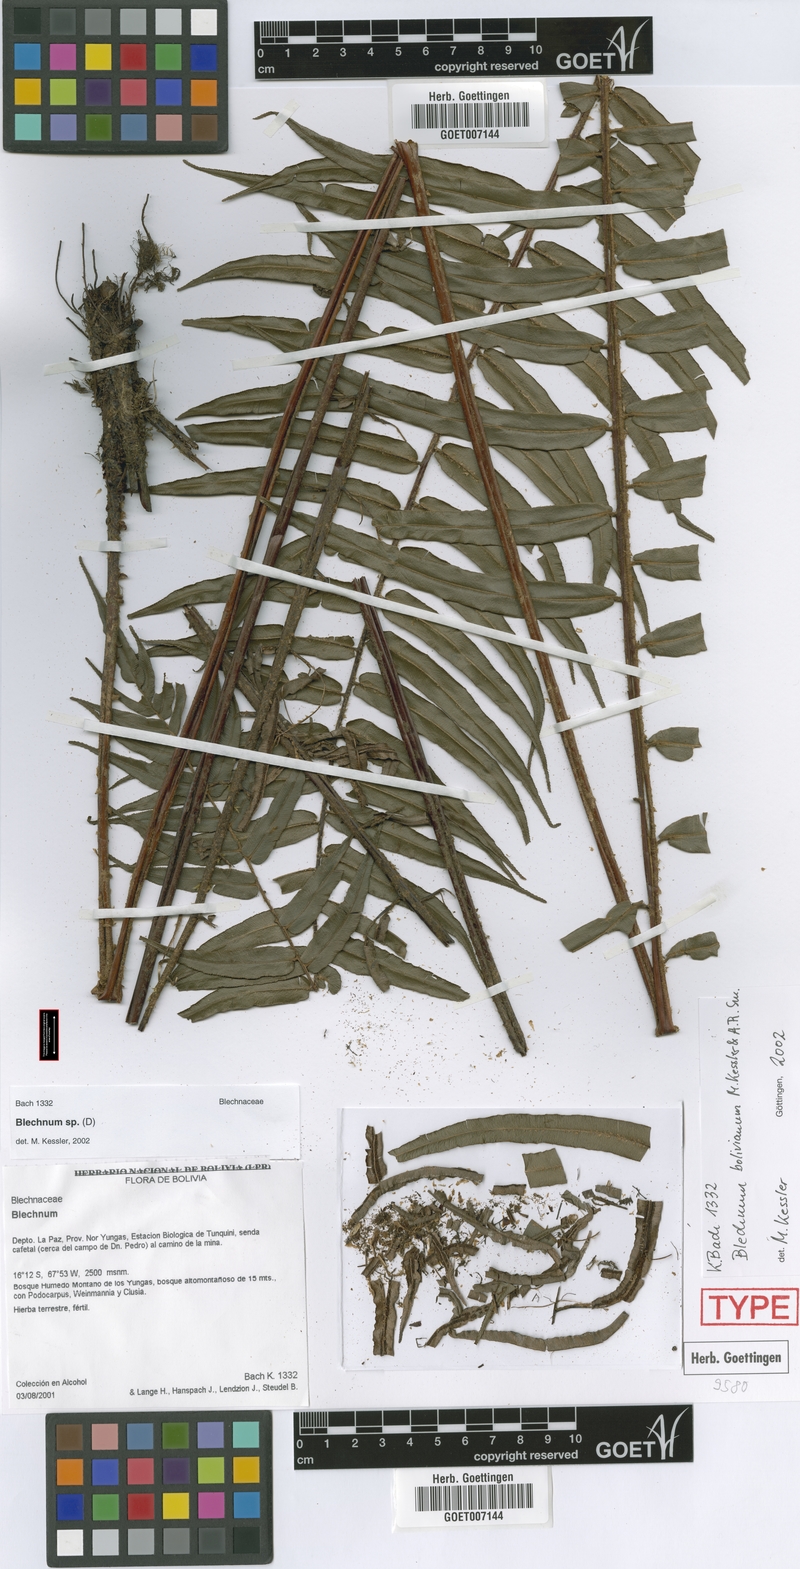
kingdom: Plantae
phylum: Tracheophyta
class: Polypodiopsida
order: Polypodiales
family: Blechnaceae
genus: Parablechnum
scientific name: Parablechnum bolivianum
